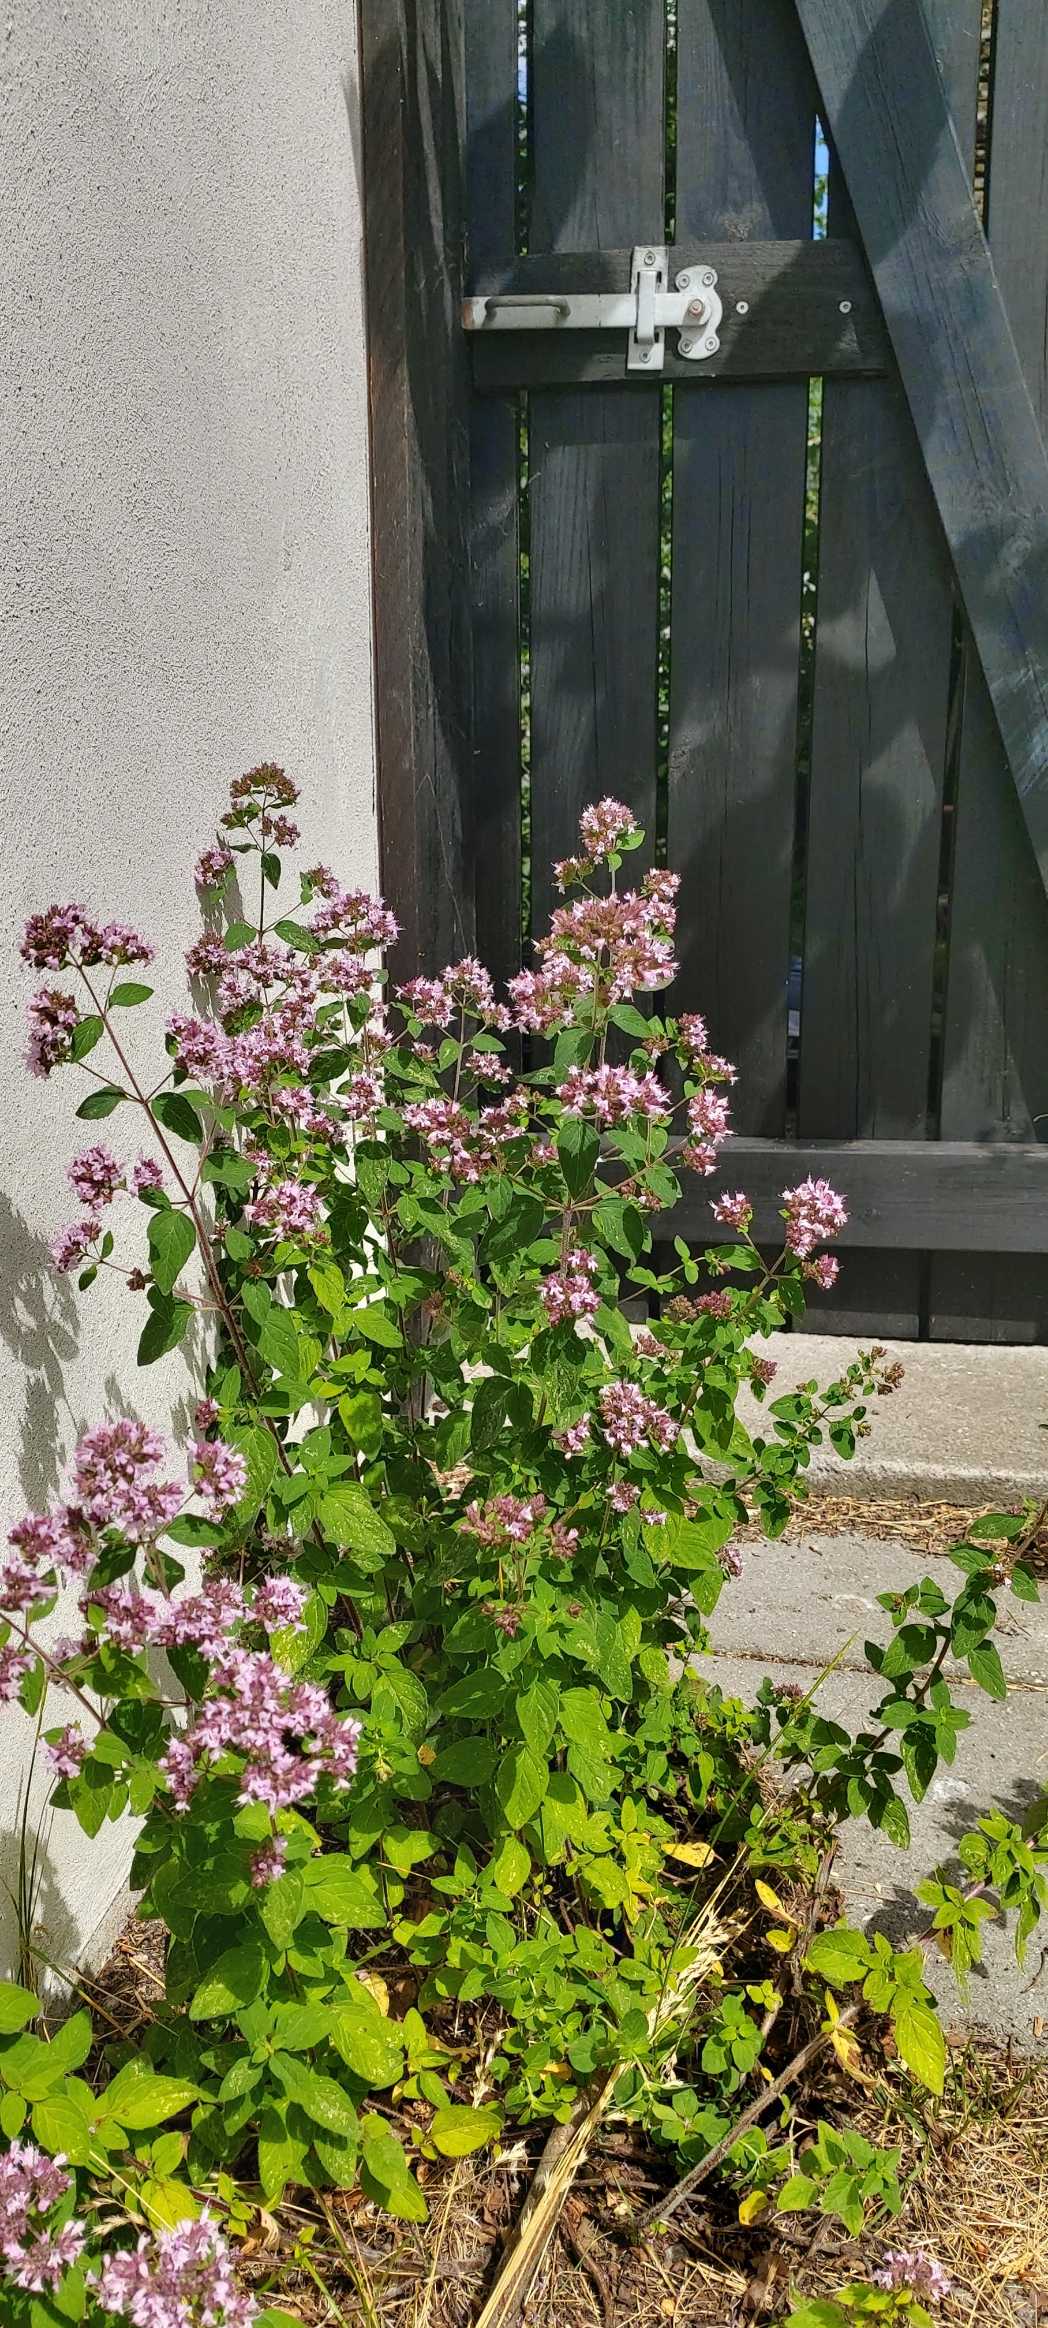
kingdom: Plantae
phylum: Tracheophyta
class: Magnoliopsida
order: Lamiales
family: Lamiaceae
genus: Origanum
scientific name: Origanum vulgare
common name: Merian
